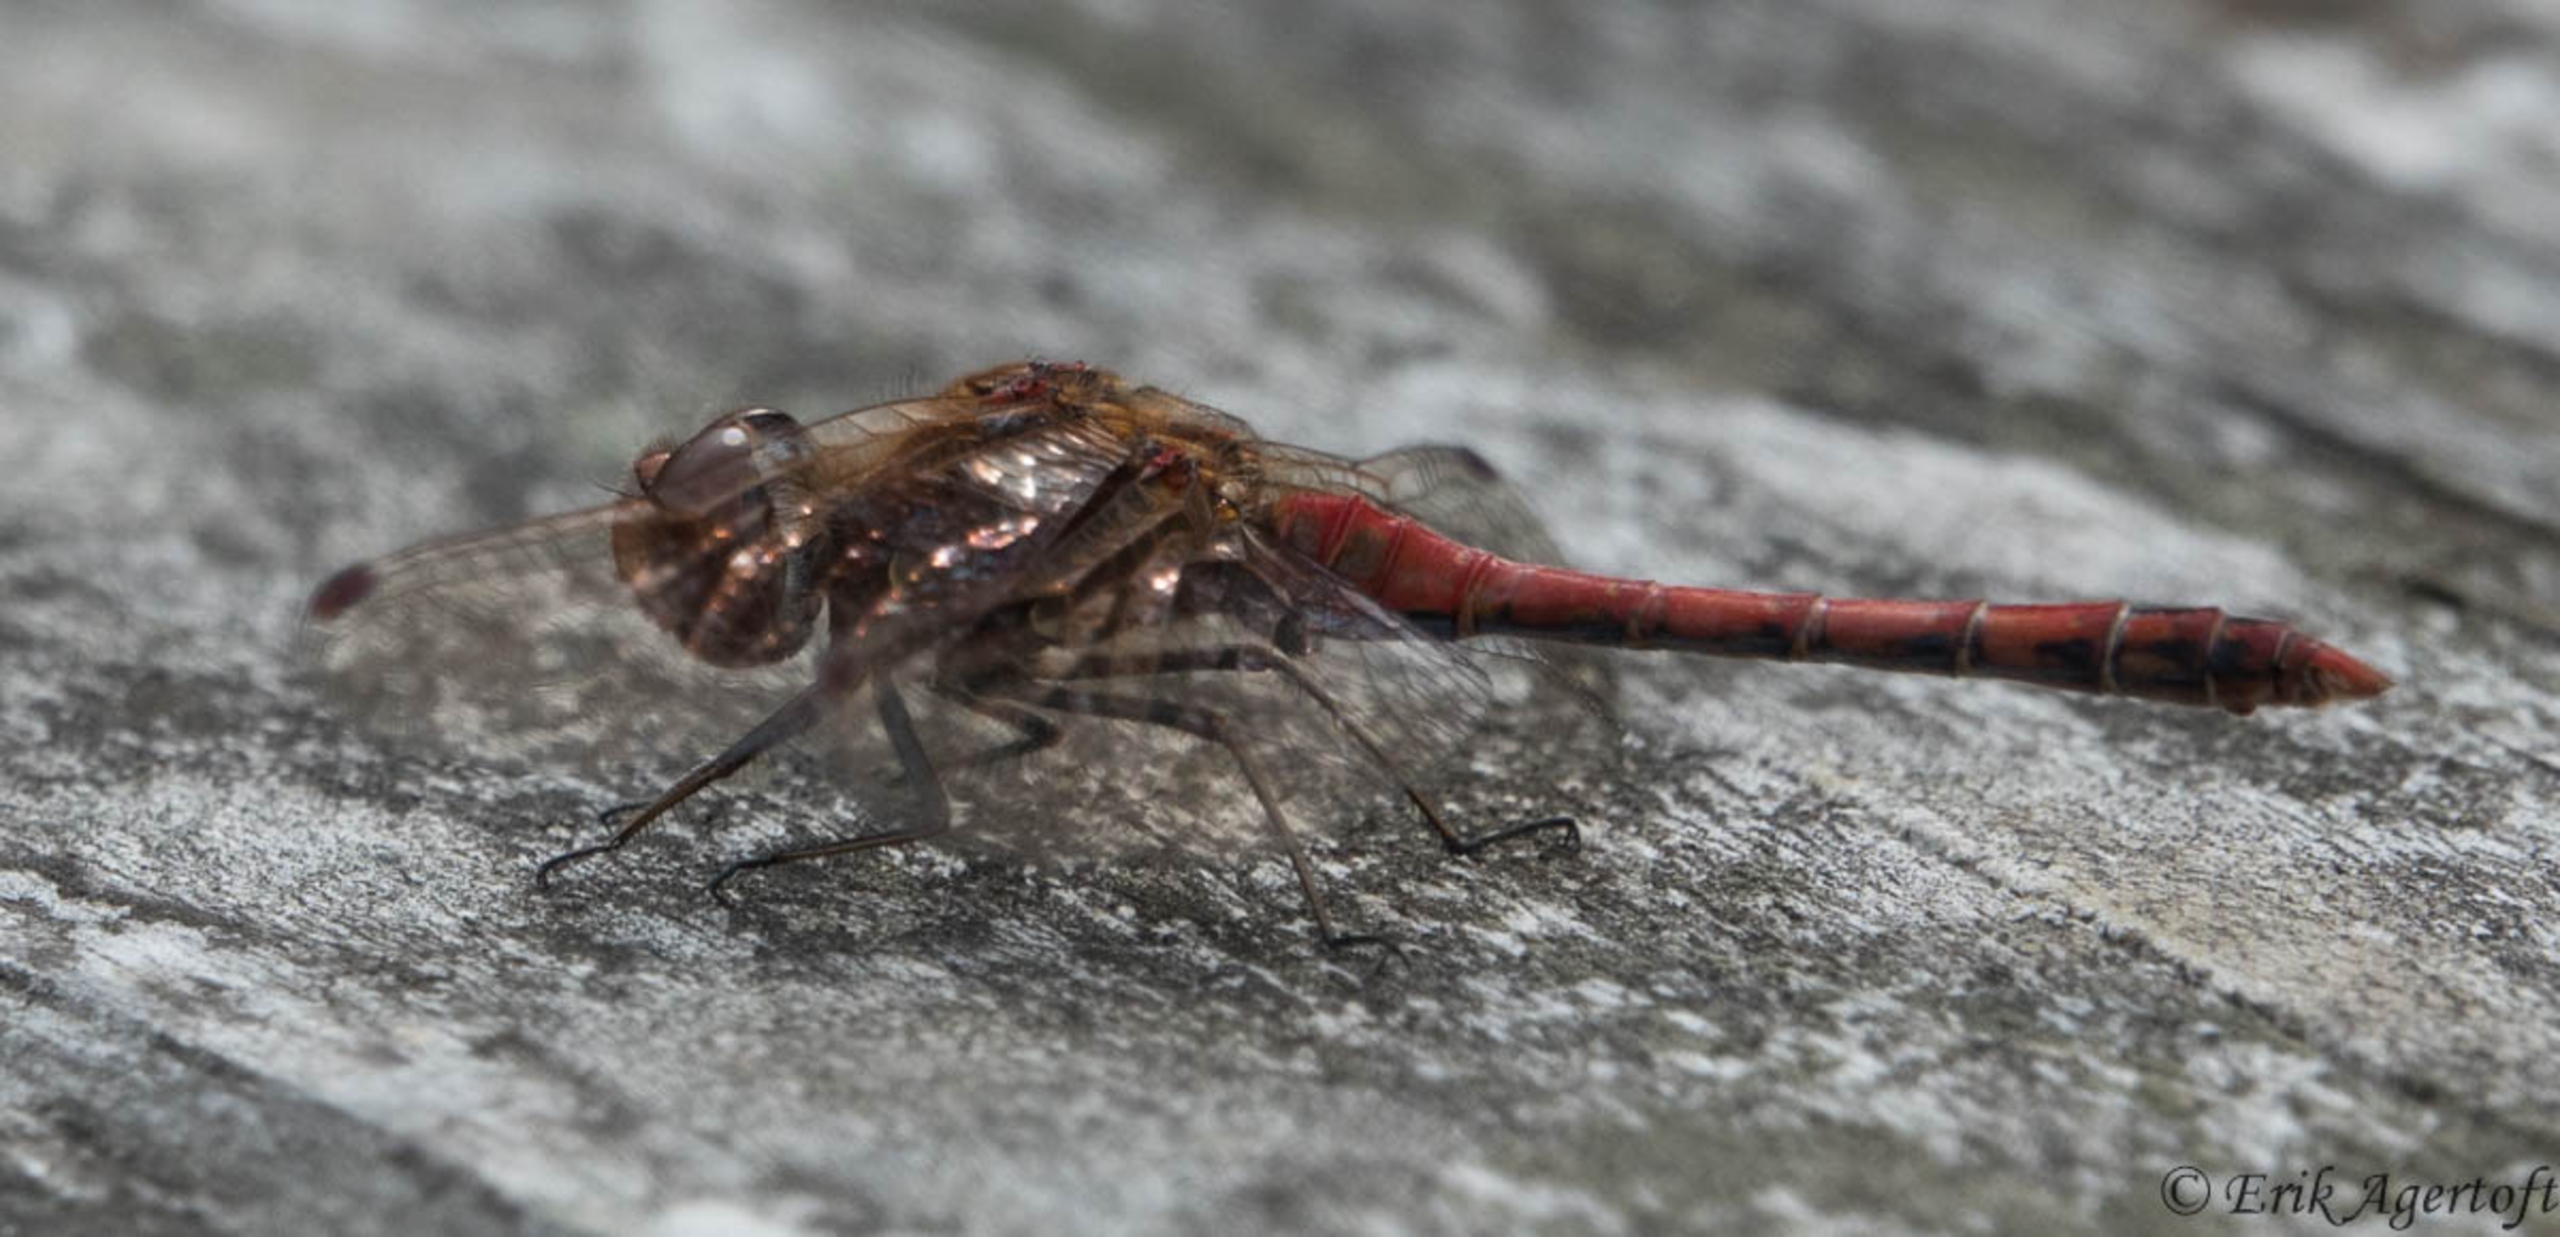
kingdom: Animalia
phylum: Arthropoda
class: Insecta
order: Odonata
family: Libellulidae
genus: Sympetrum
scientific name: Sympetrum sanguineum
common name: Blodrød hedelibel
